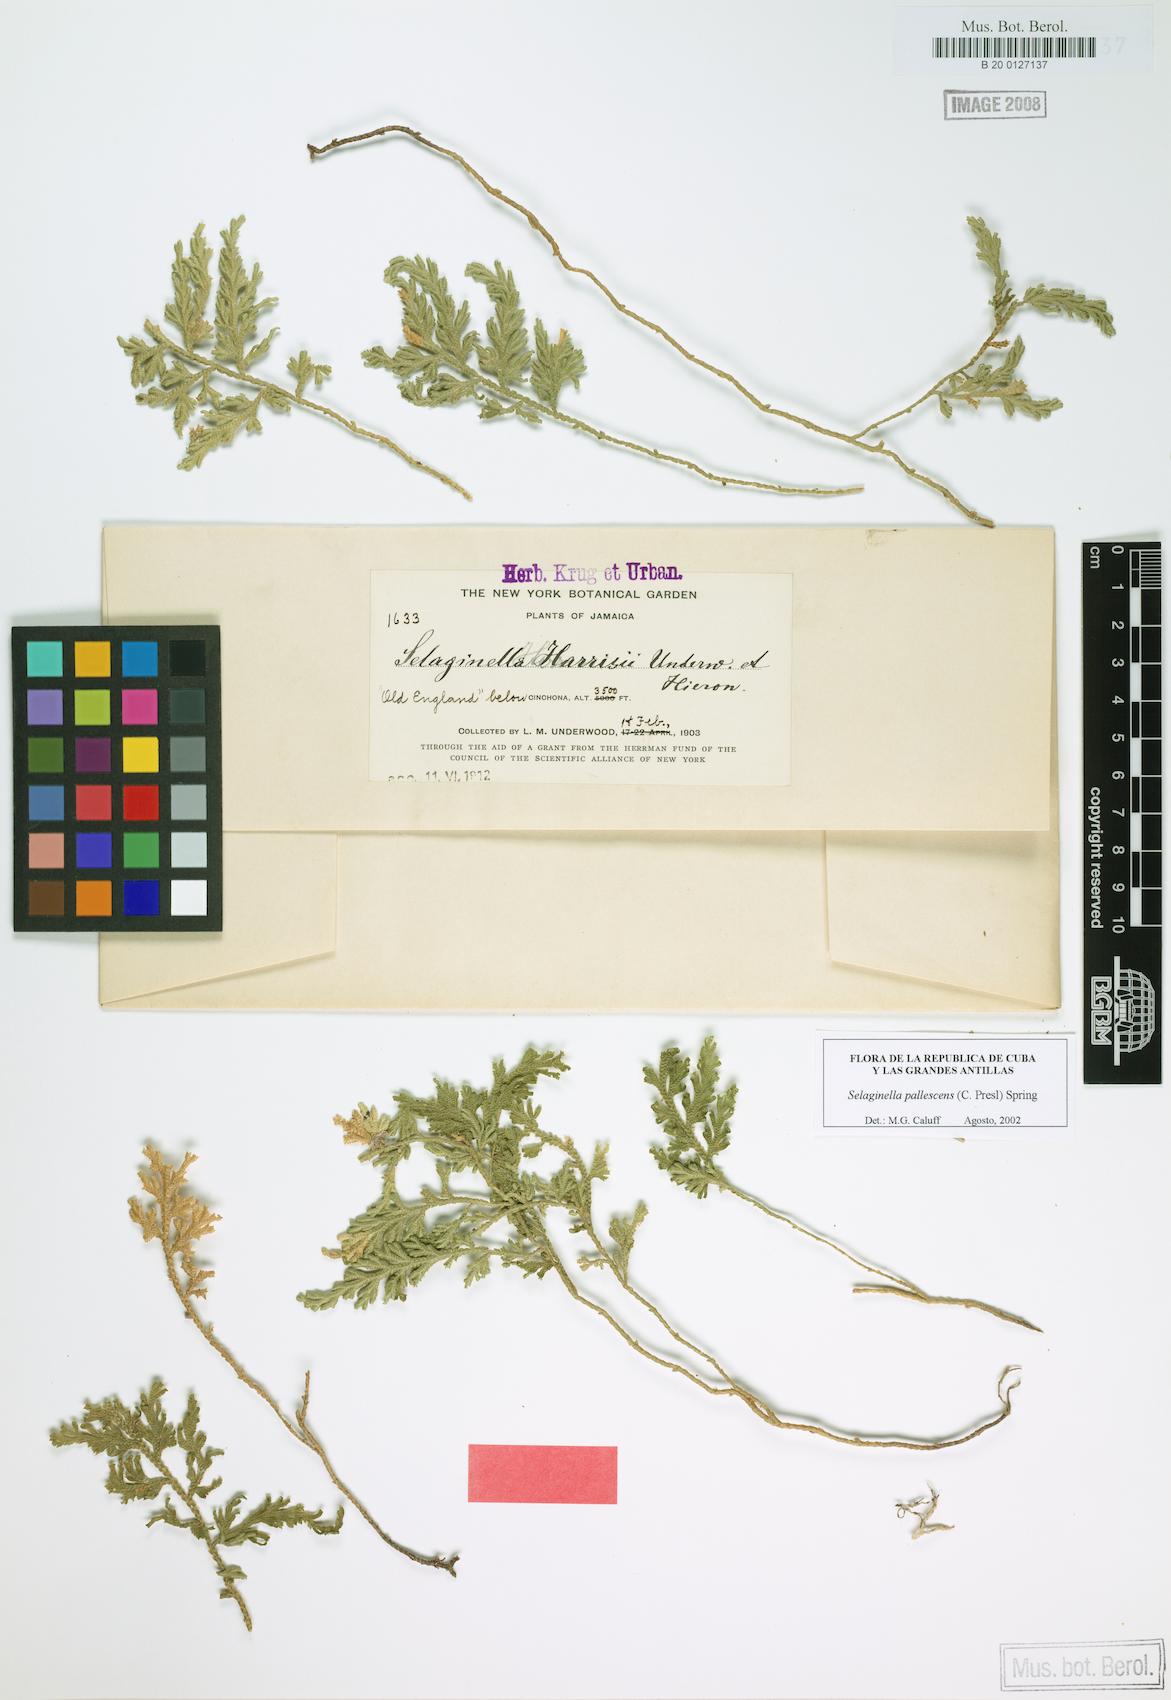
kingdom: Plantae
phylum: Tracheophyta
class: Lycopodiopsida
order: Selaginellales
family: Selaginellaceae
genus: Selaginella
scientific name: Selaginella harrisii
